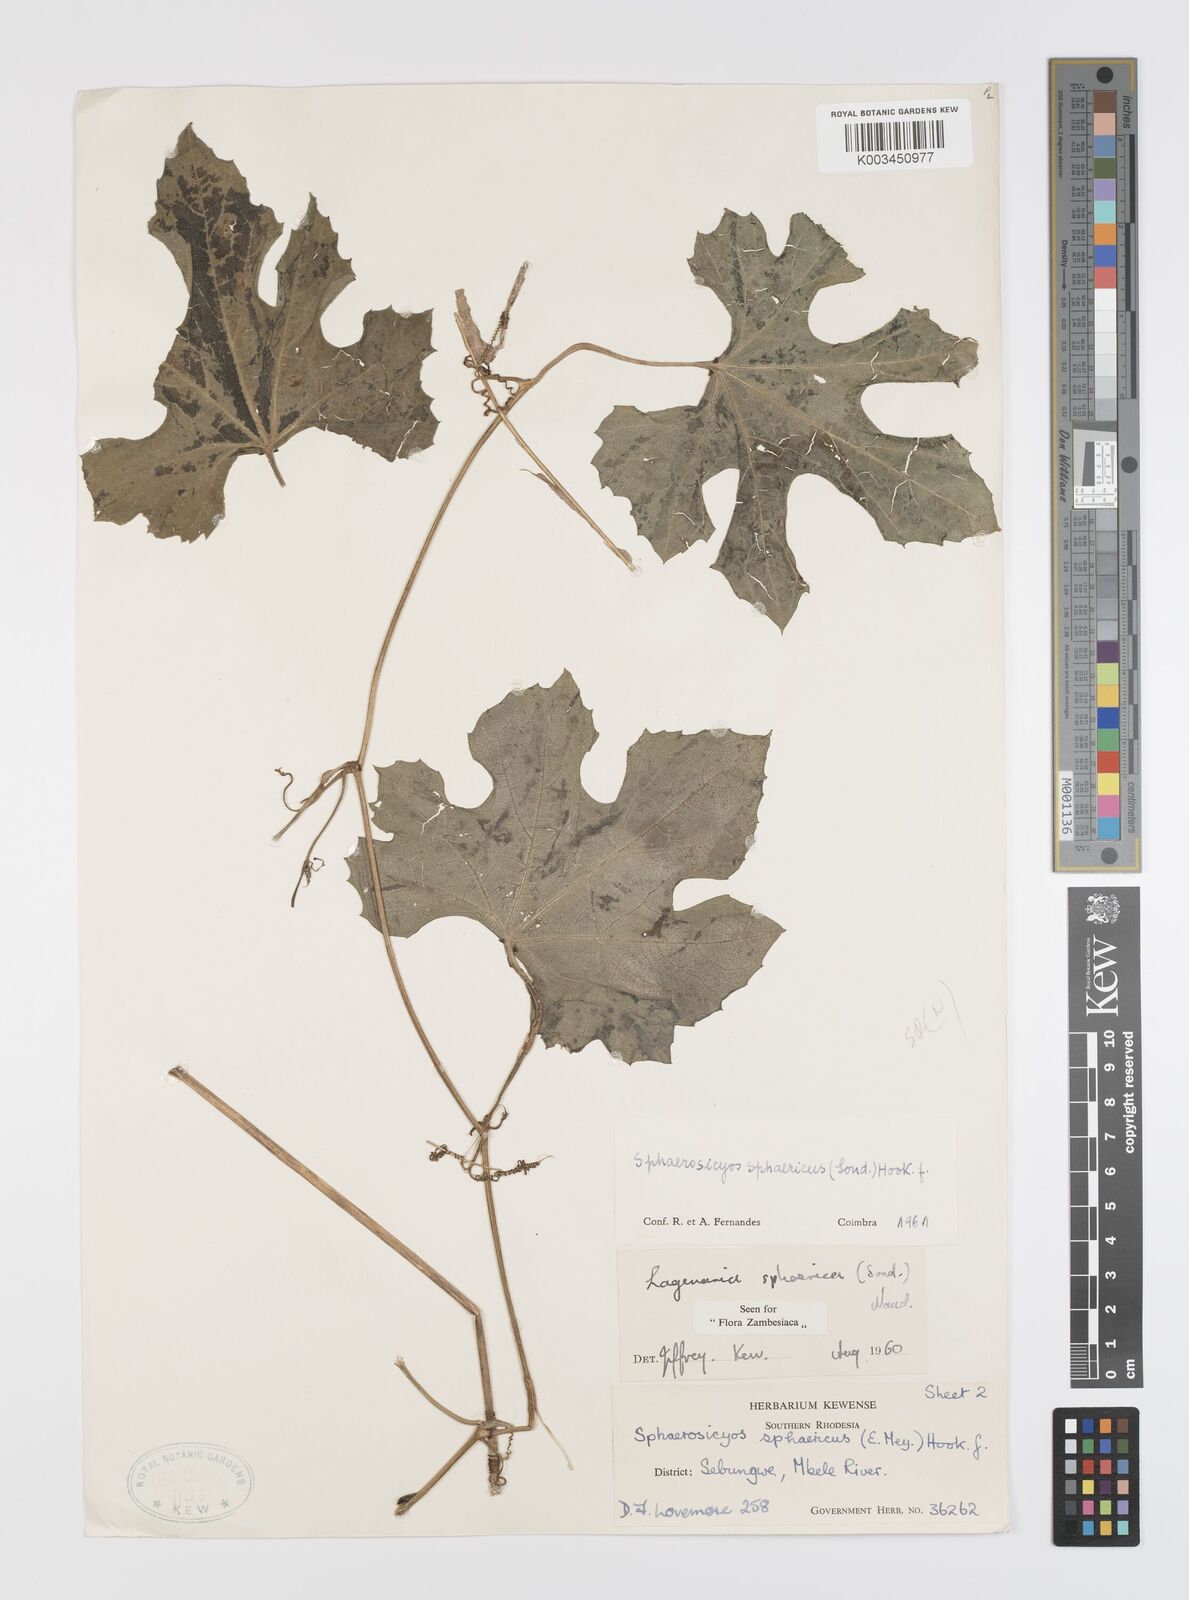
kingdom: Plantae
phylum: Tracheophyta
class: Magnoliopsida
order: Cucurbitales
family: Cucurbitaceae
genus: Lagenaria
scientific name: Lagenaria sphaerica
